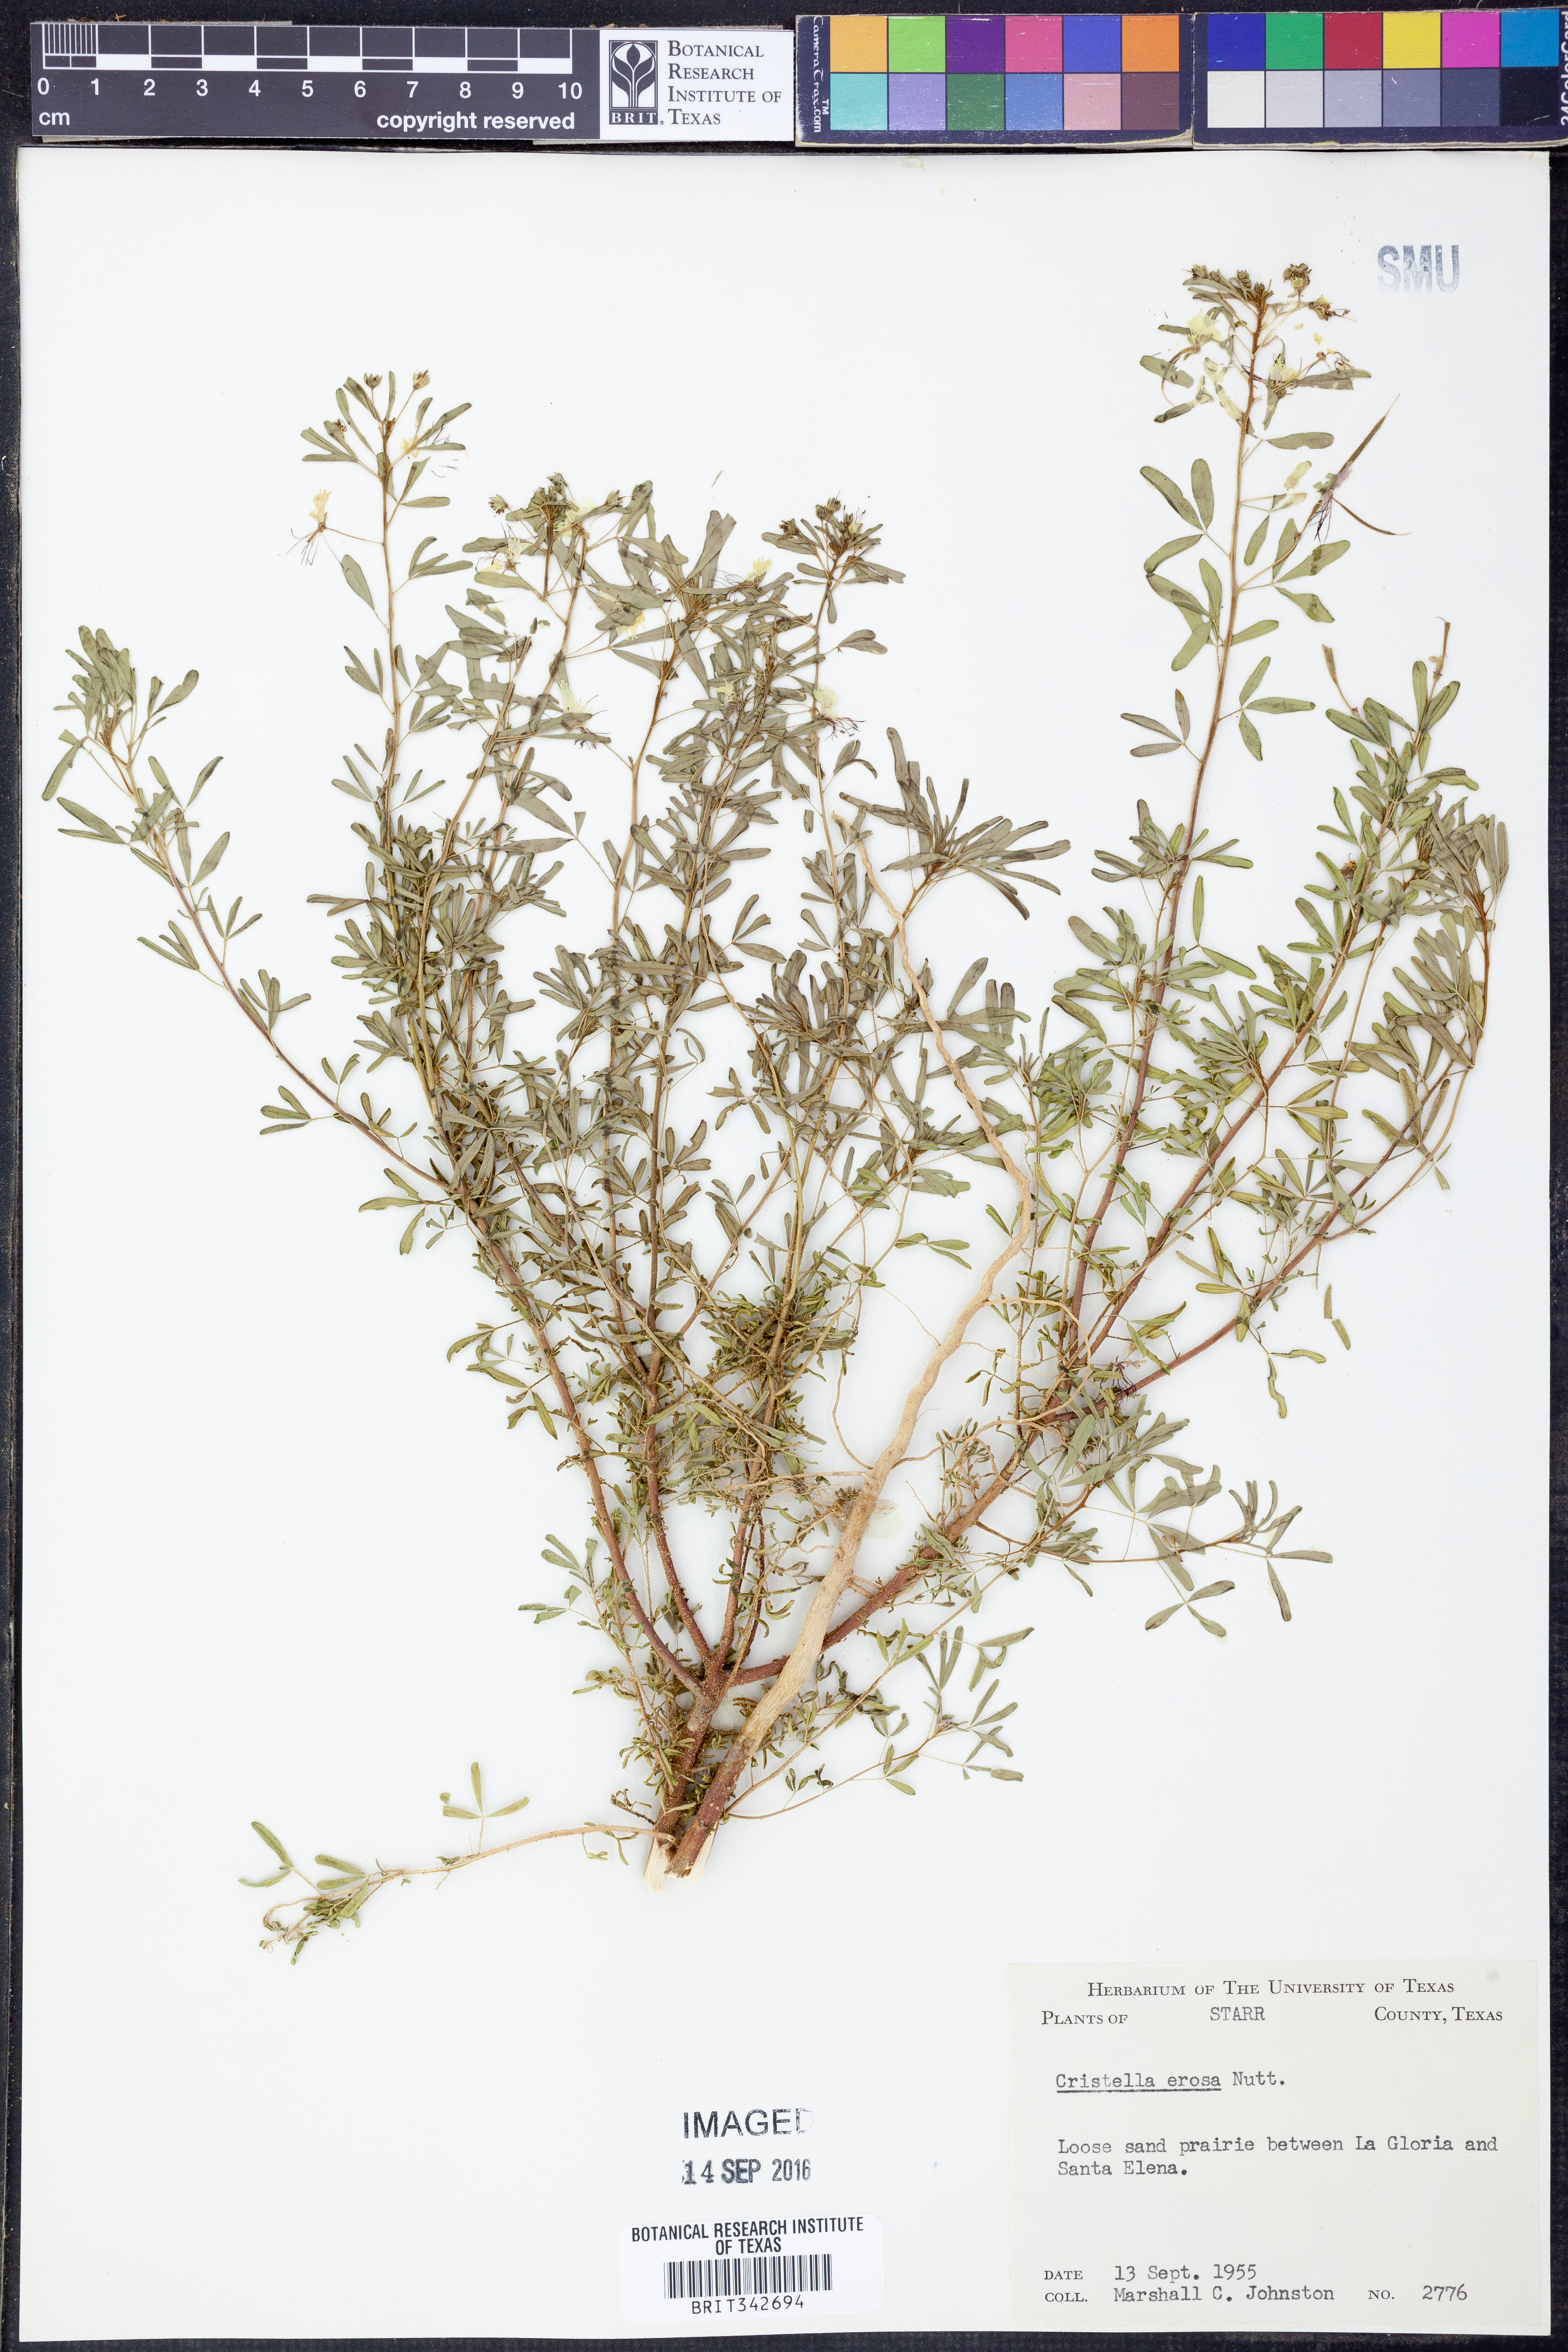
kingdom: Plantae
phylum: Tracheophyta
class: Magnoliopsida
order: Brassicales
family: Cleomaceae
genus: Polanisia
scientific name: Polanisia erosa
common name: Large clammyweed
